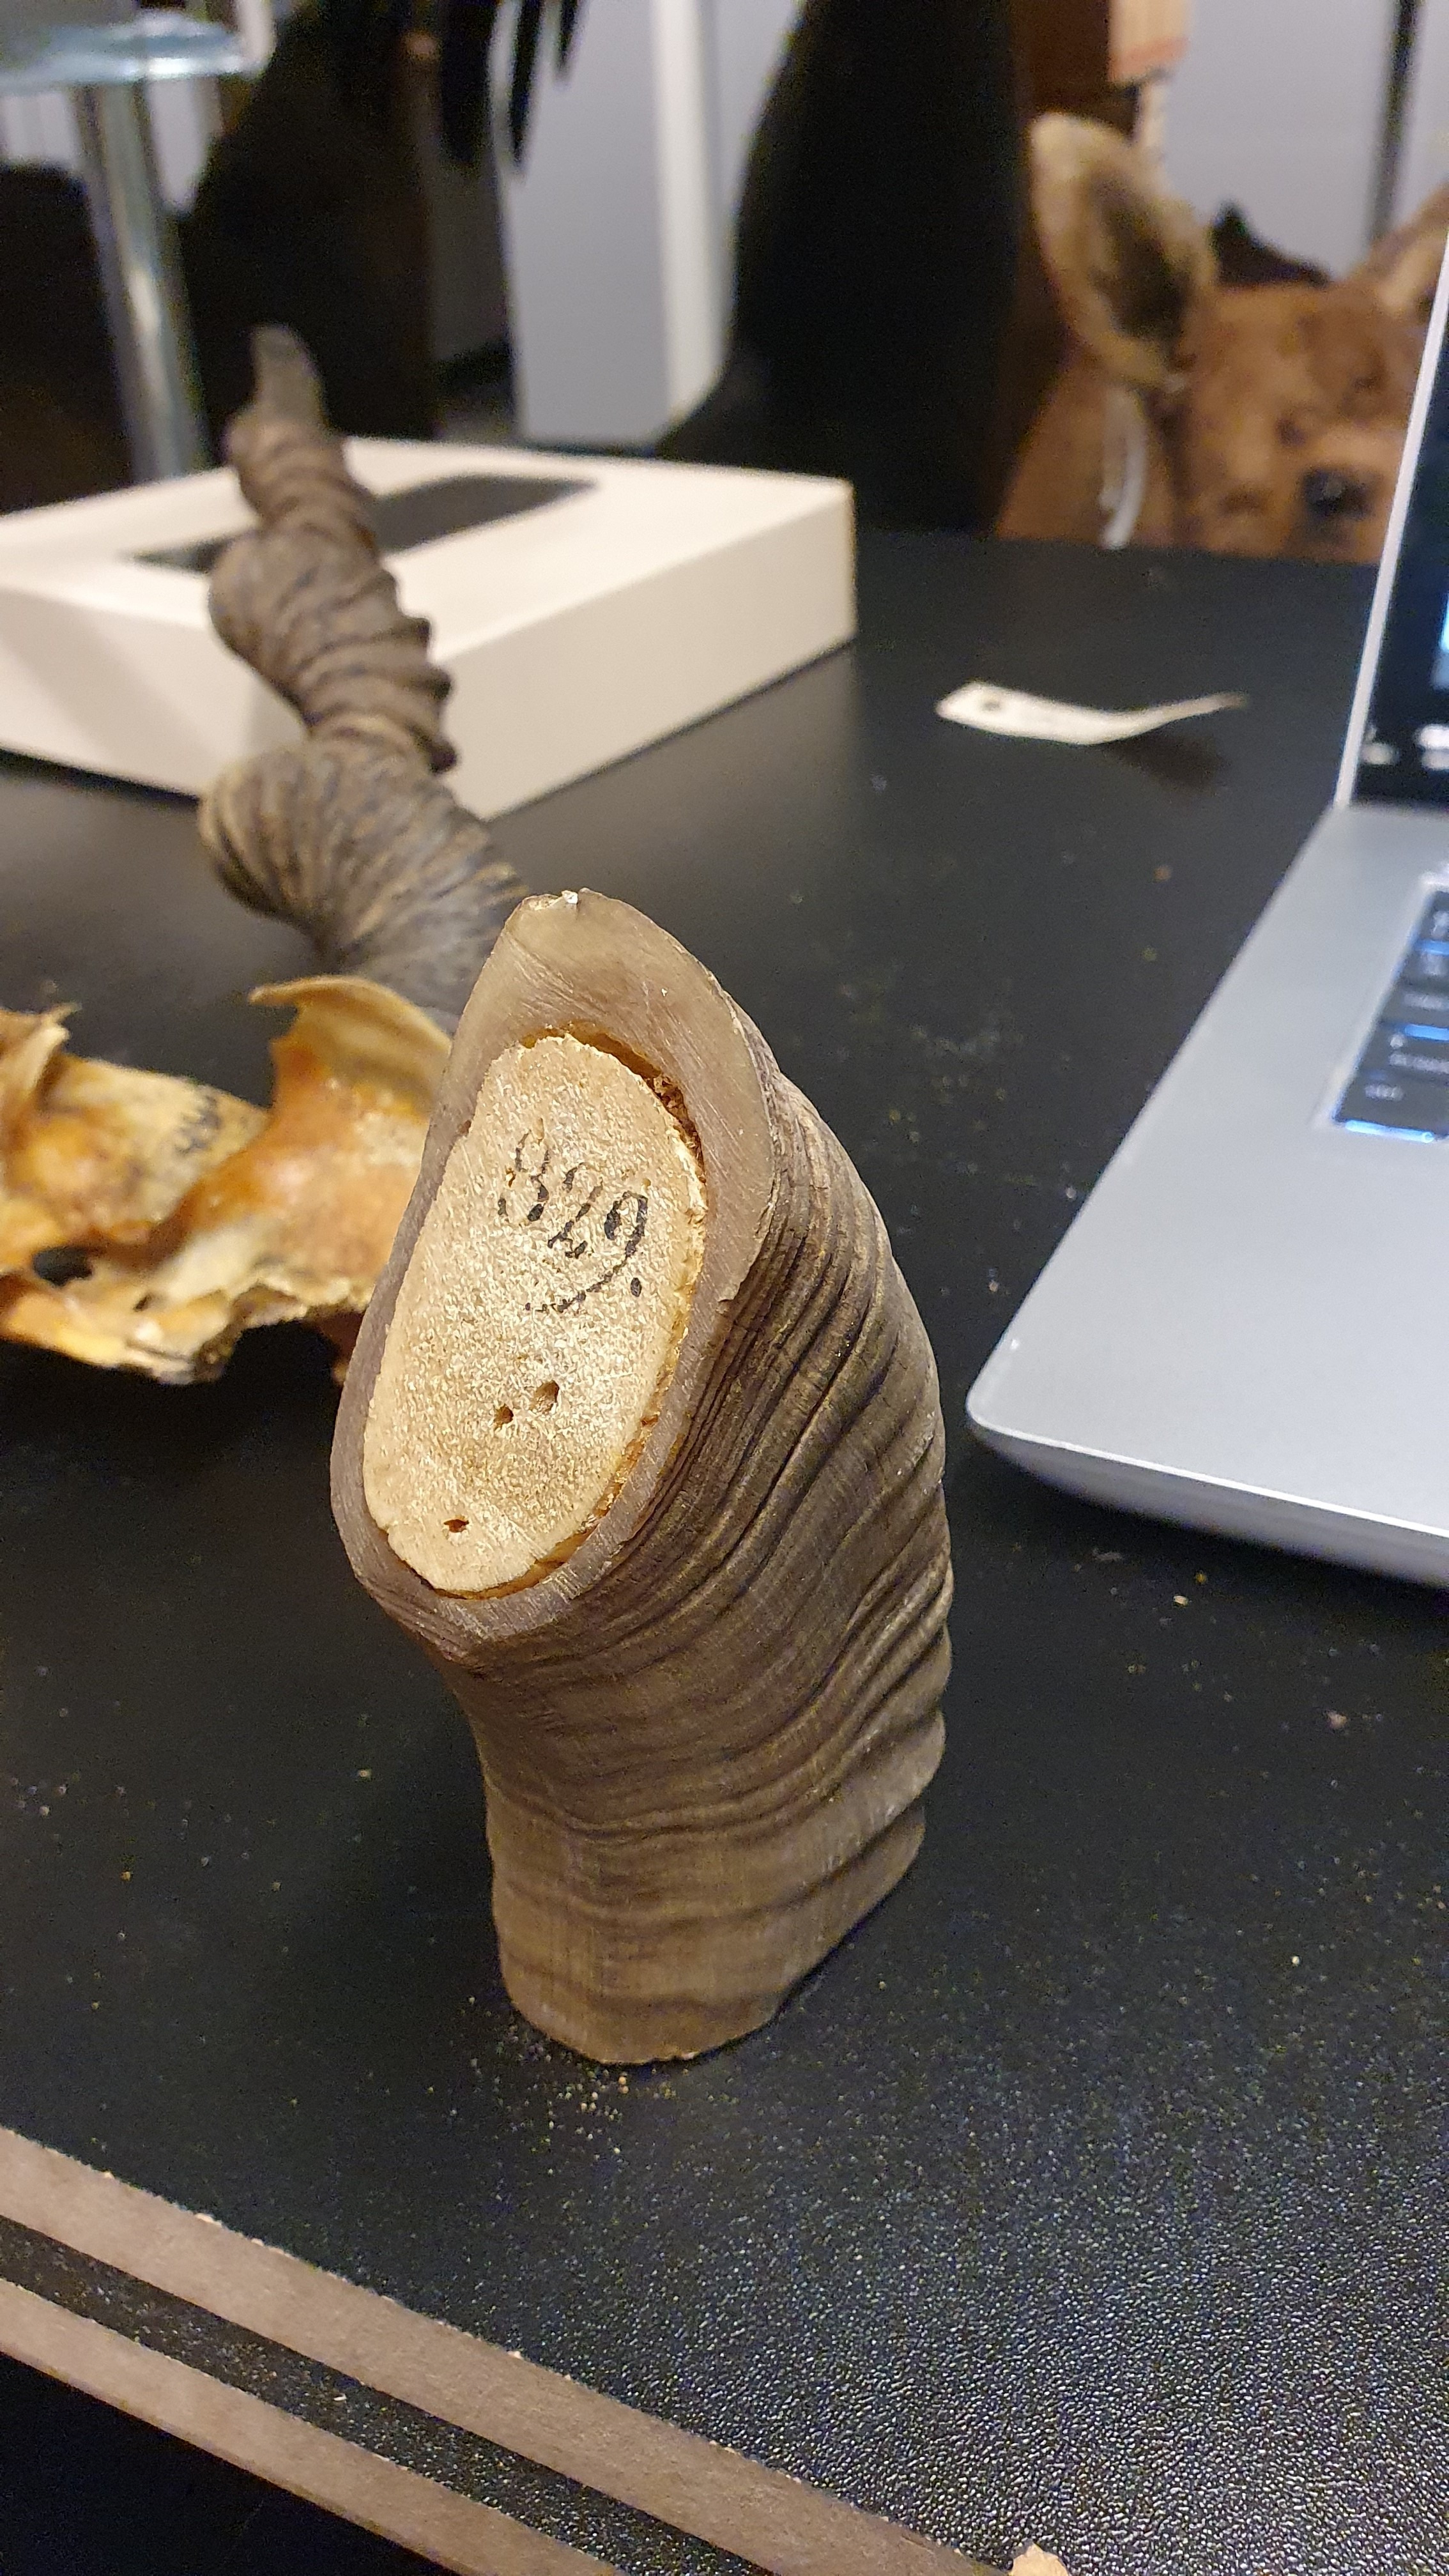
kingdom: Animalia
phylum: Chordata
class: Mammalia
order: Artiodactyla
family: Bovidae
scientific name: Bovidae
